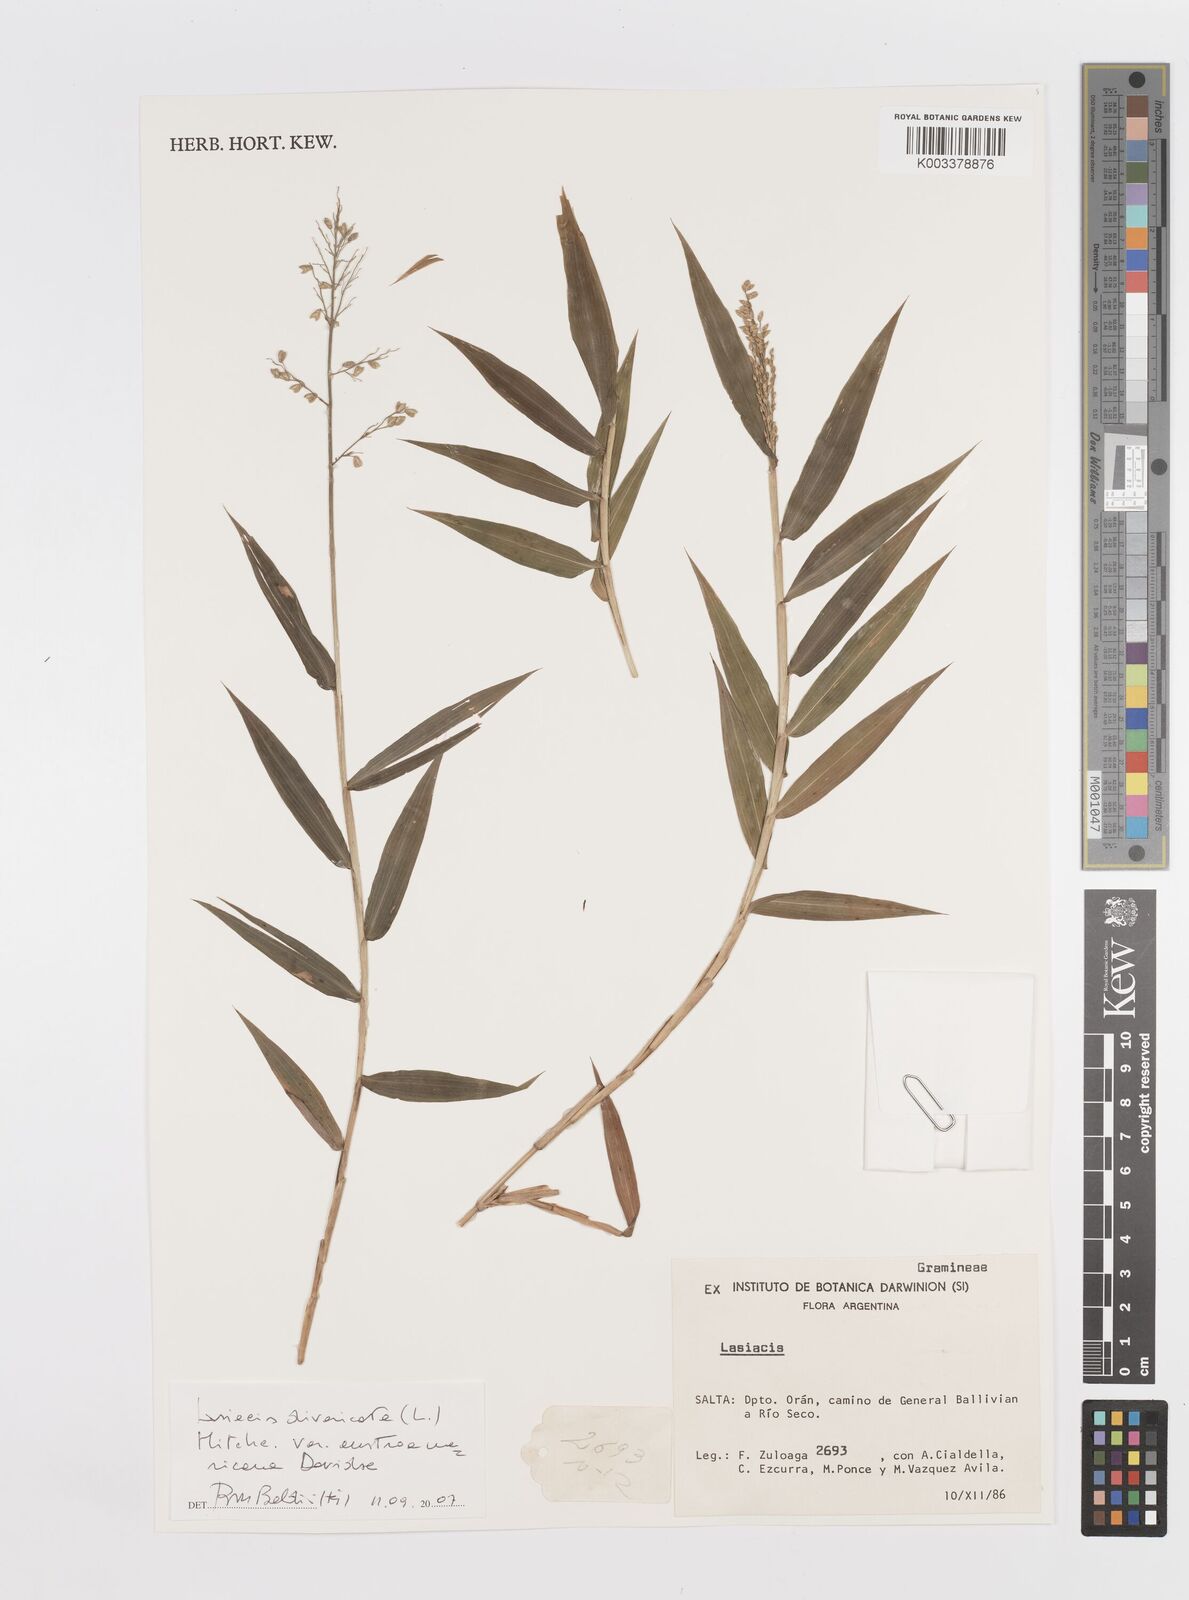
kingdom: Plantae
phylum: Tracheophyta
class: Liliopsida
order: Poales
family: Poaceae
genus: Lasiacis
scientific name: Lasiacis divaricata
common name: Smallcane
